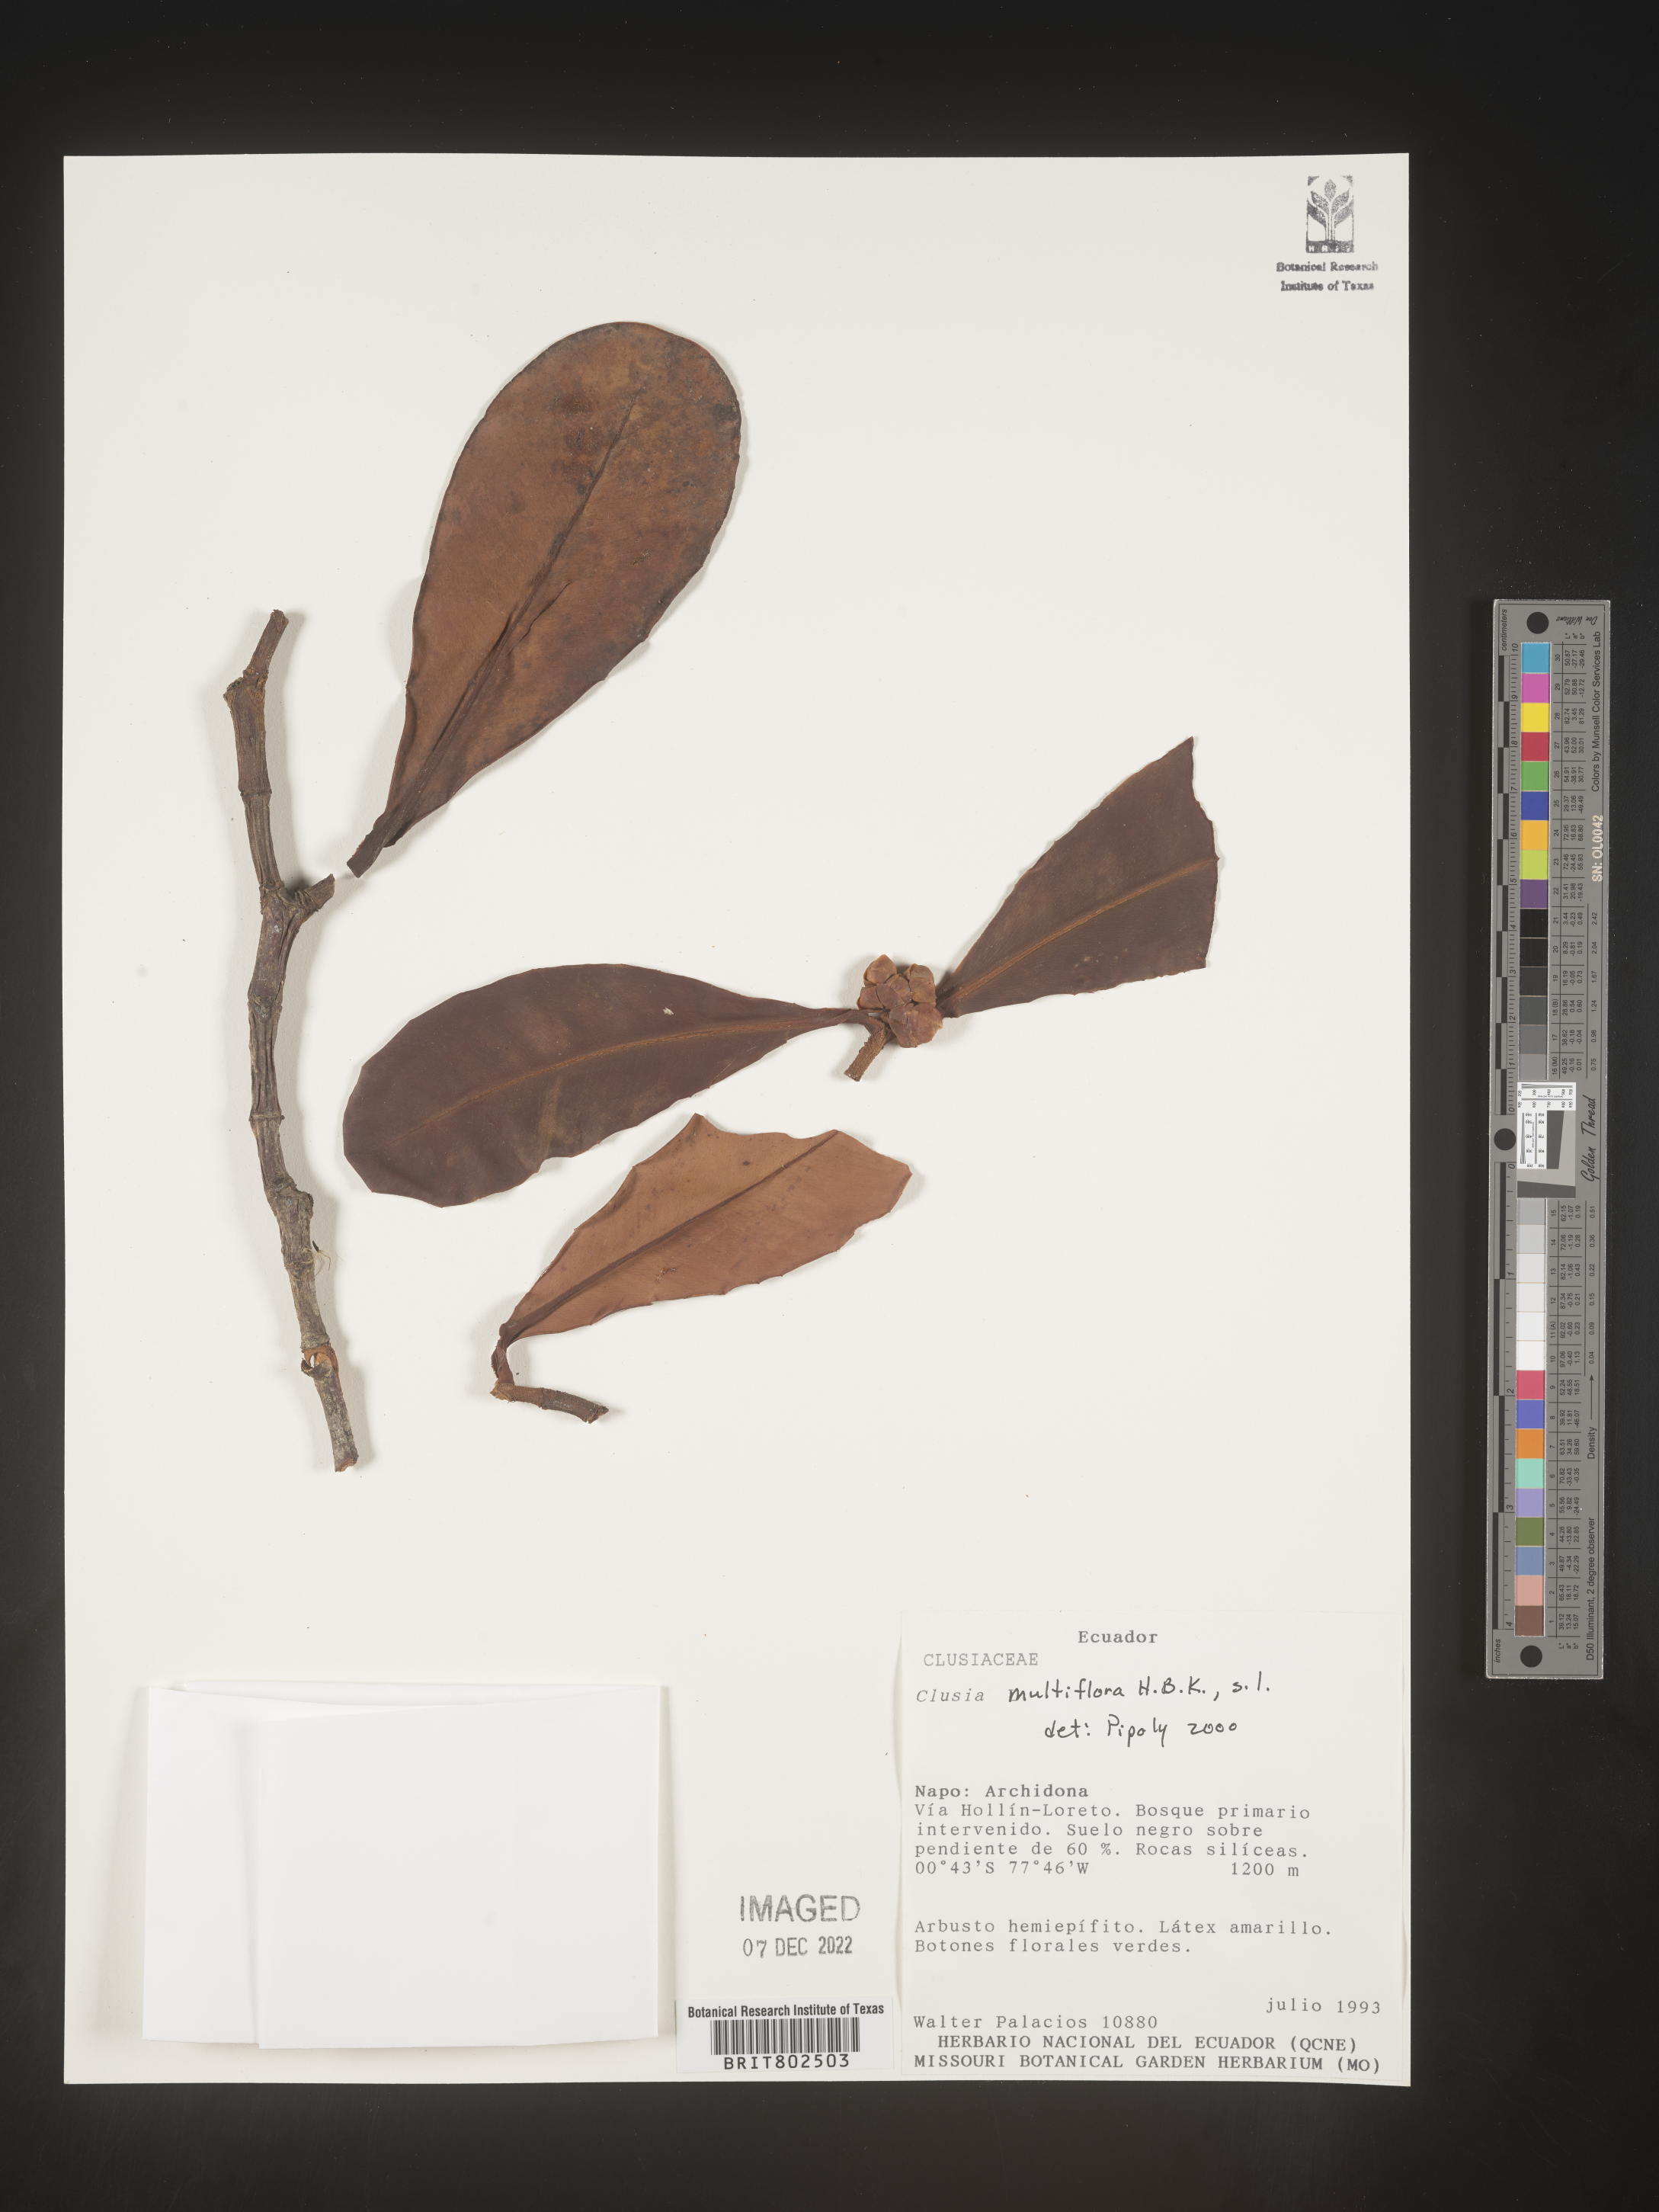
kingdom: Plantae
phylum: Tracheophyta
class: Magnoliopsida
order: Malpighiales
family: Clusiaceae
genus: Clusia
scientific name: Clusia multiflora
